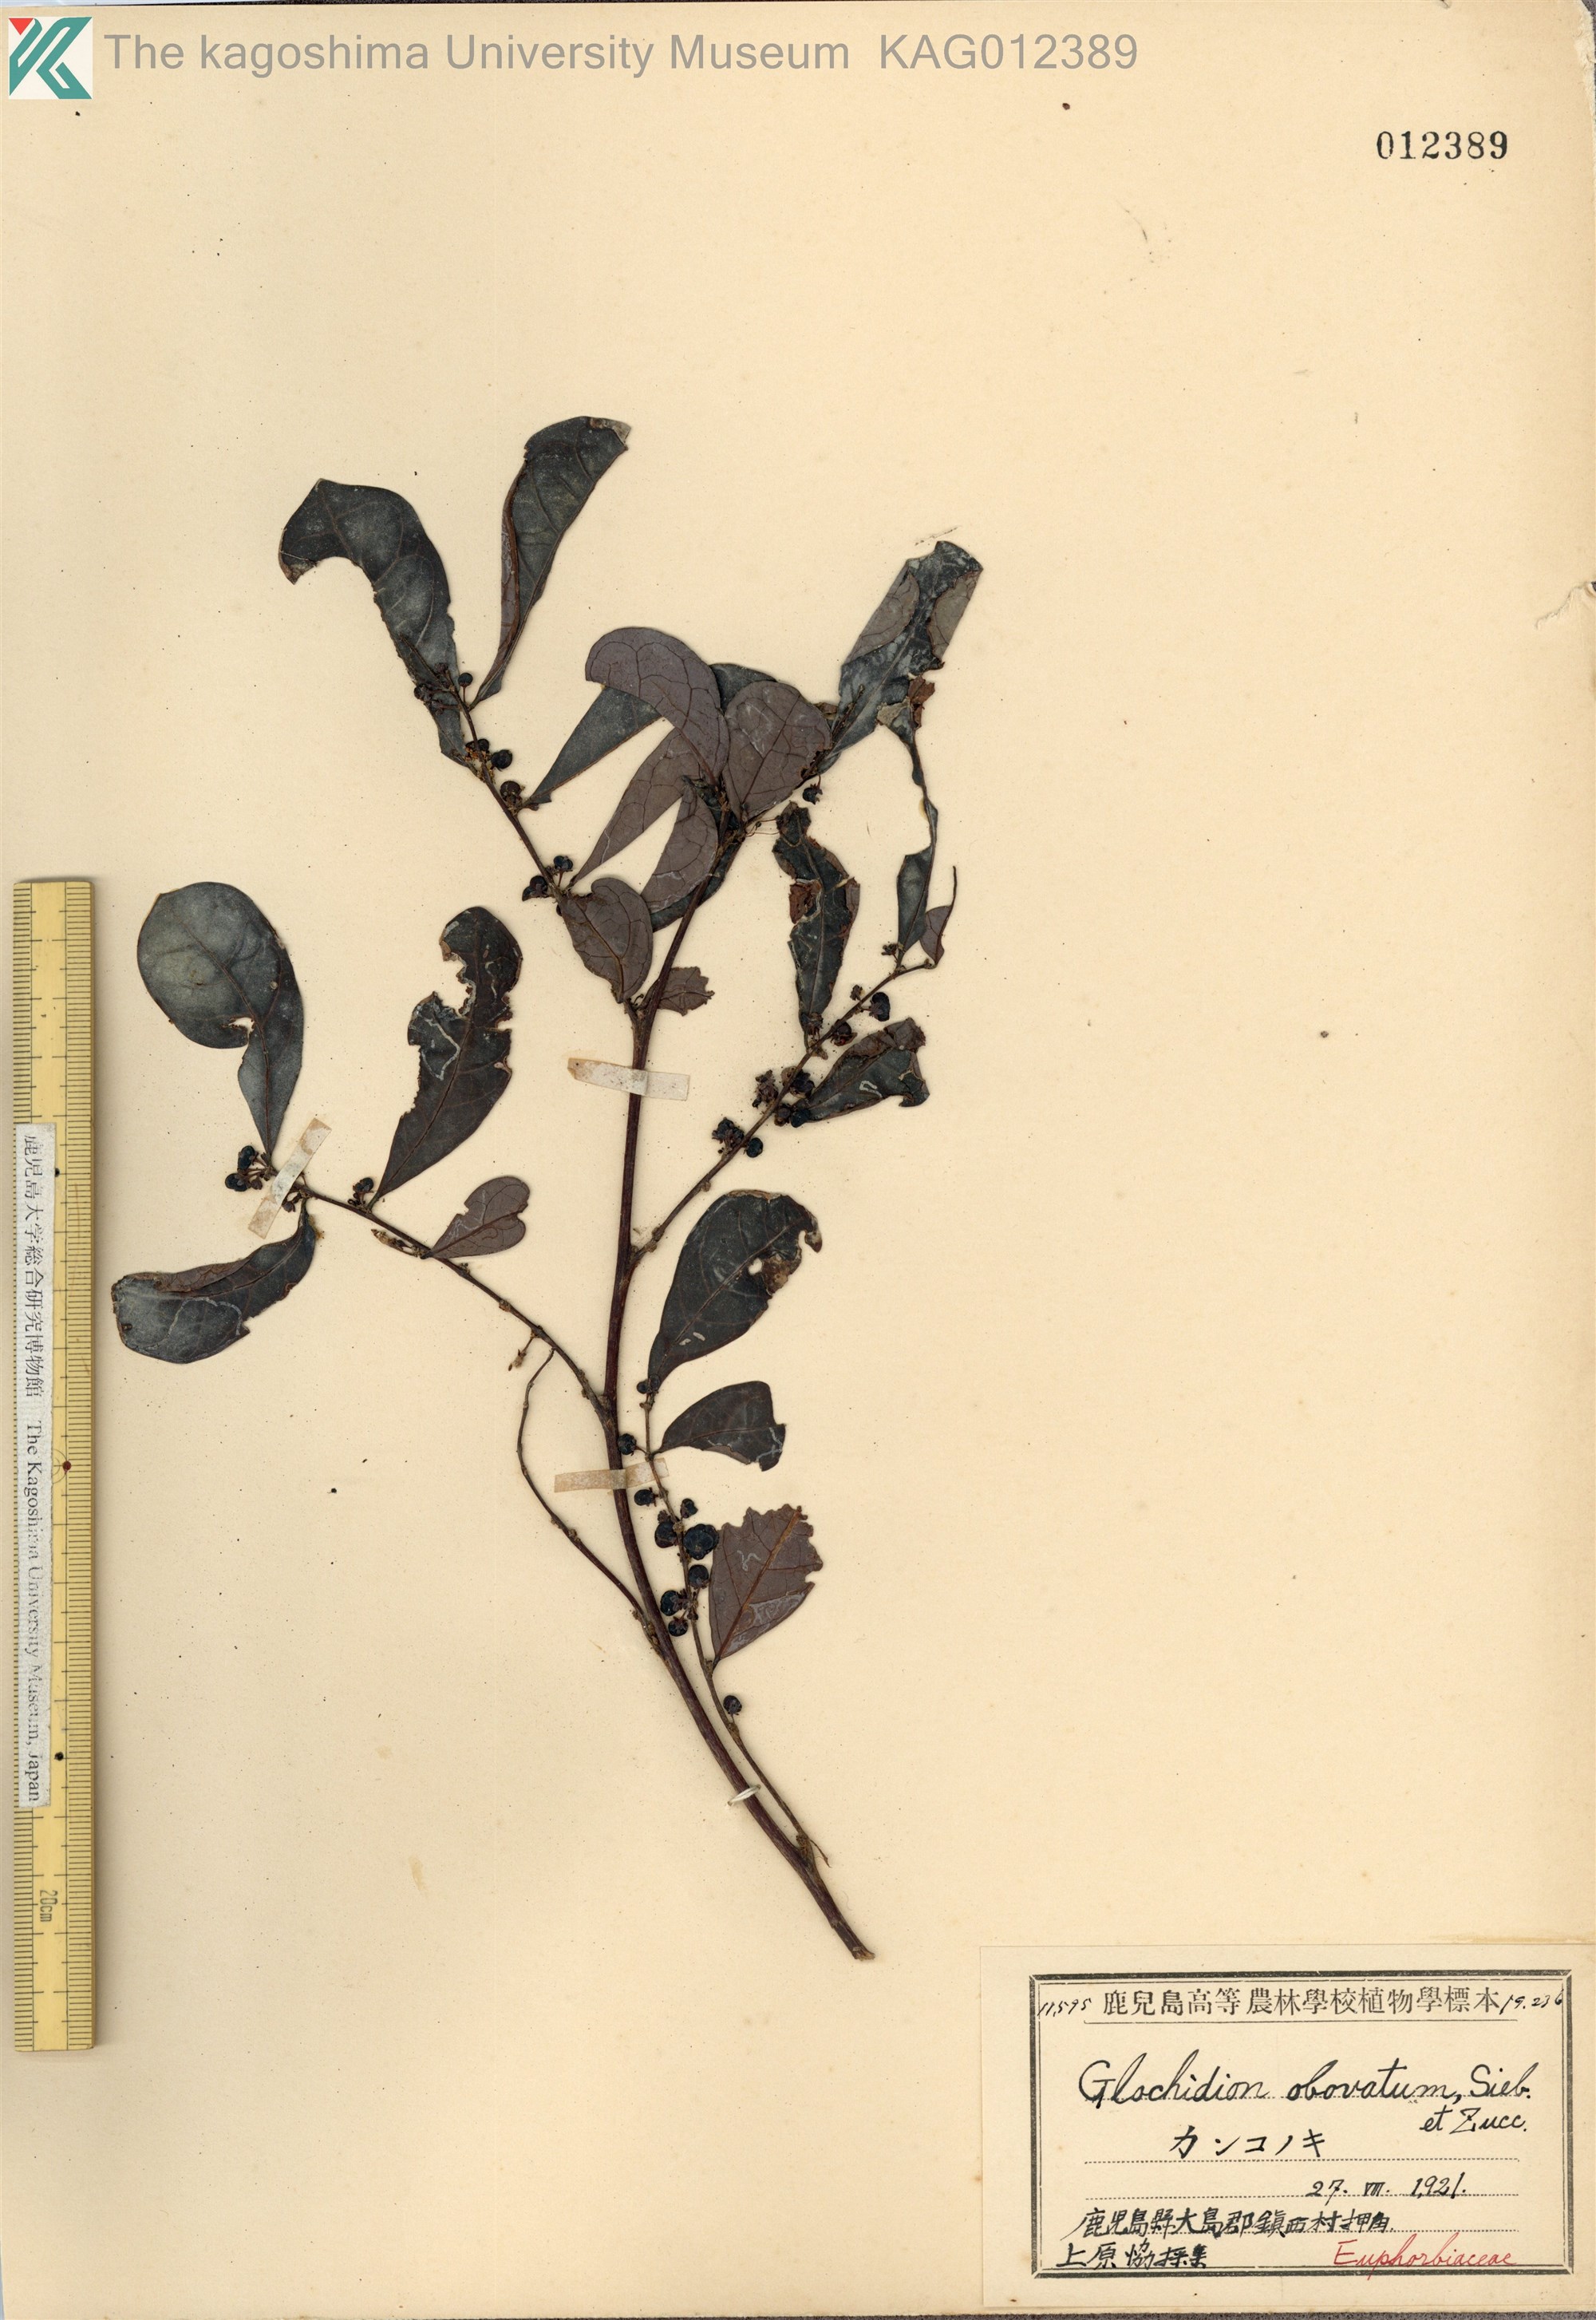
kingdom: Plantae
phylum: Tracheophyta
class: Magnoliopsida
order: Malpighiales
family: Phyllanthaceae
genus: Glochidion
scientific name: Glochidion obovatum
